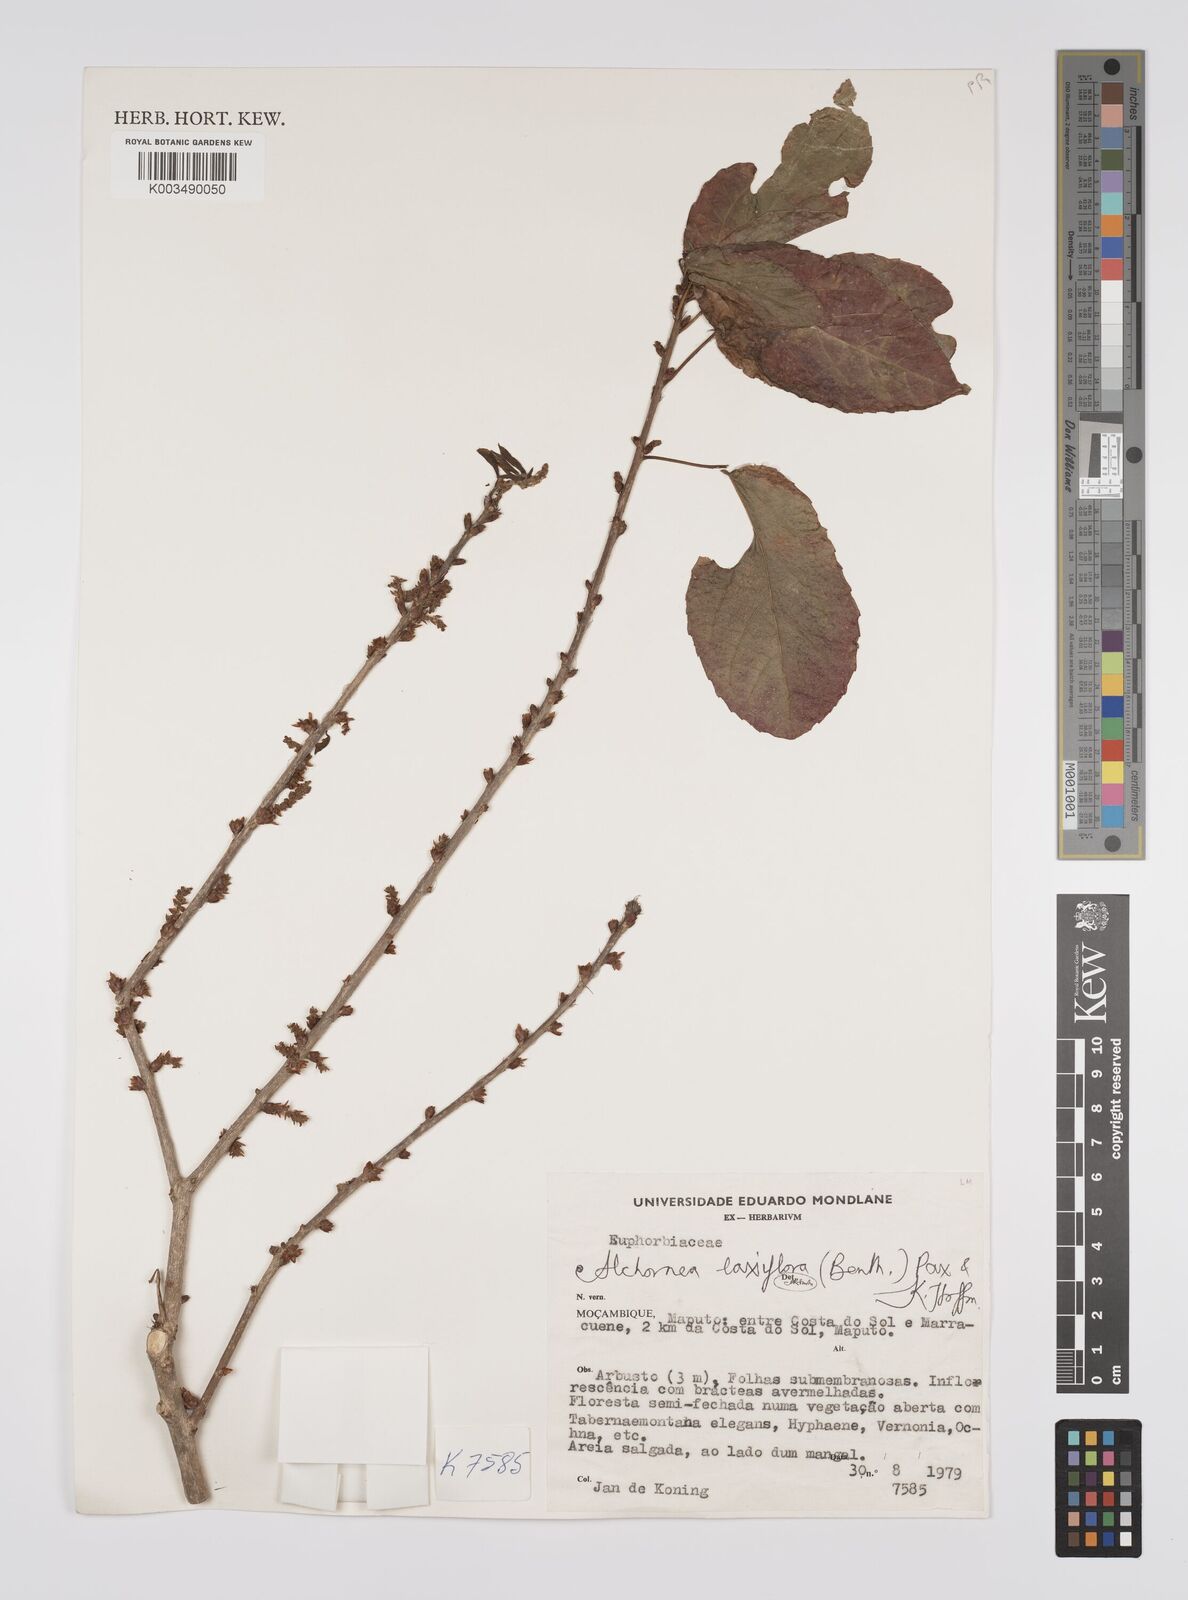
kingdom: Plantae
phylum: Tracheophyta
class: Magnoliopsida
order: Malpighiales
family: Euphorbiaceae
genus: Alchornea
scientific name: Alchornea laxiflora
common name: Lowveld bead-string
